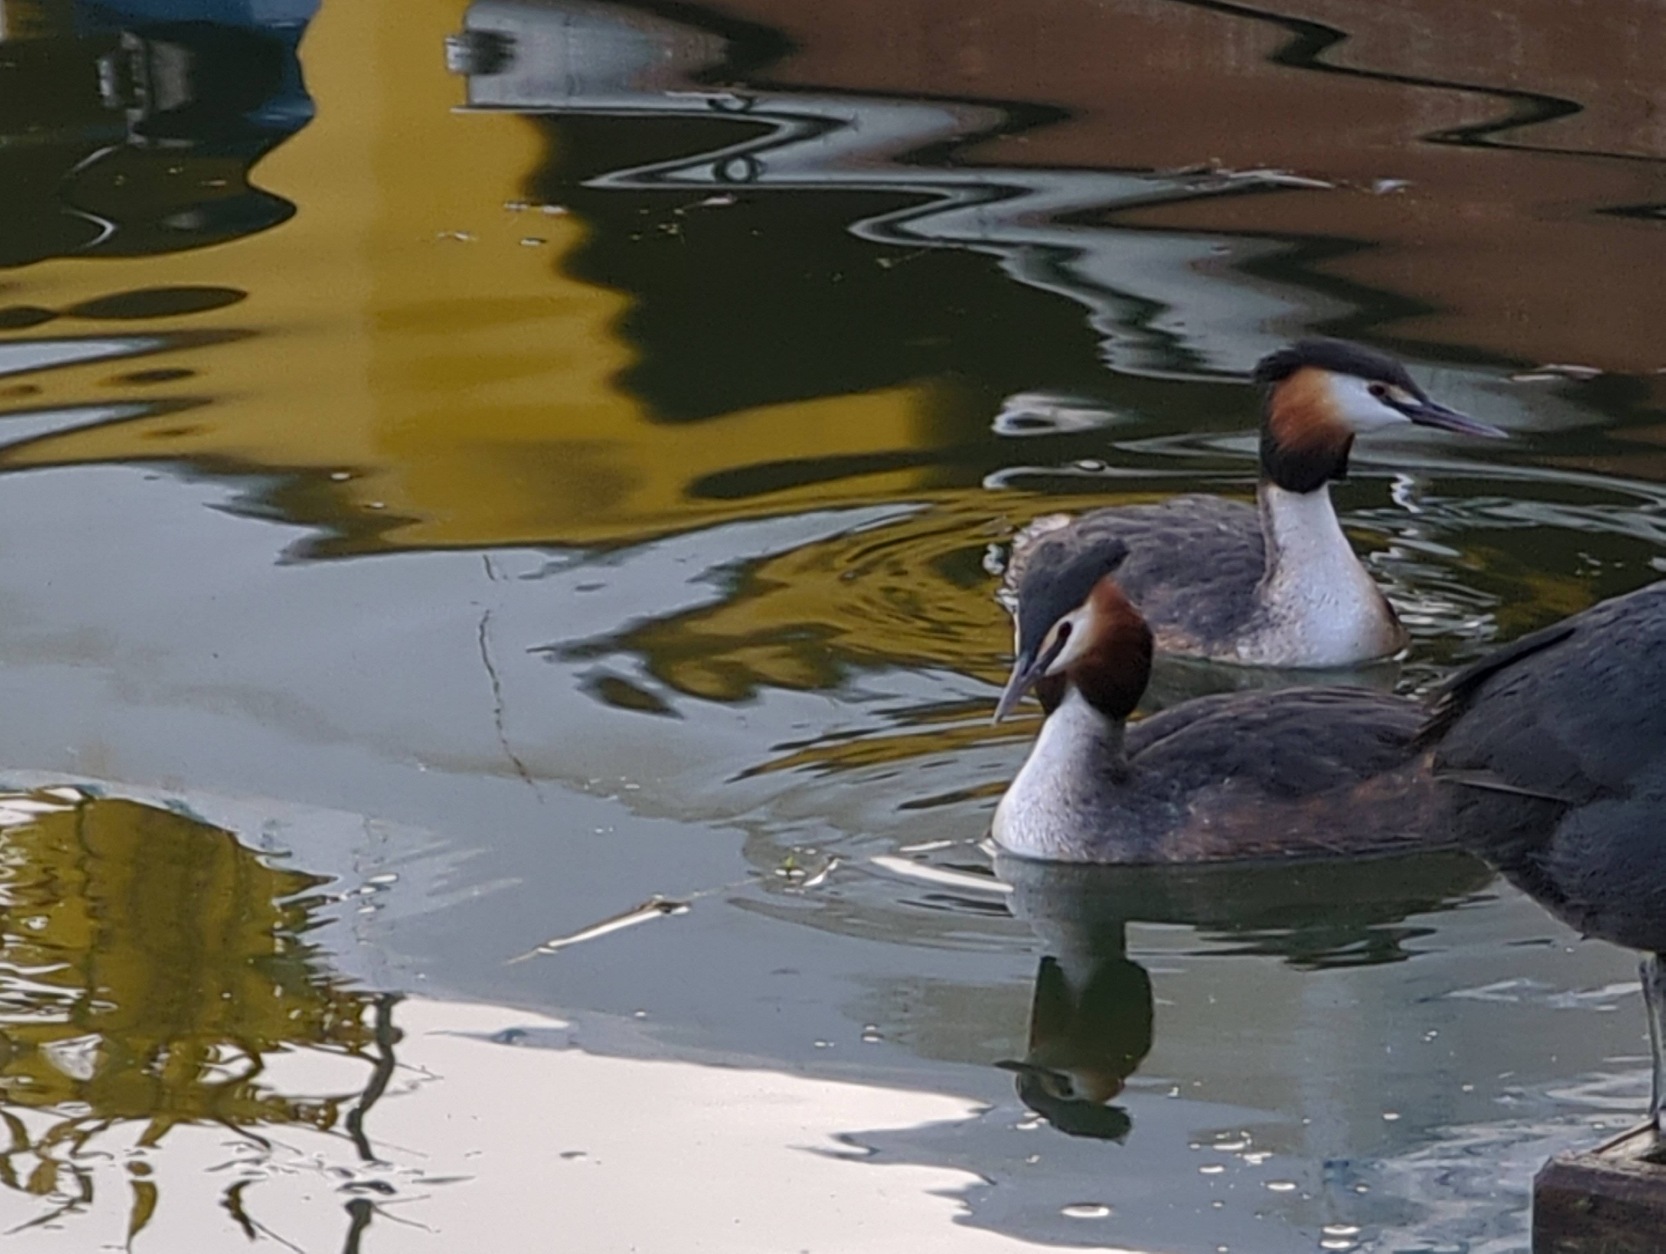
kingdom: Animalia
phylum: Chordata
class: Aves
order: Podicipediformes
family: Podicipedidae
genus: Podiceps
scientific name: Podiceps cristatus
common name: Toppet lappedykker
